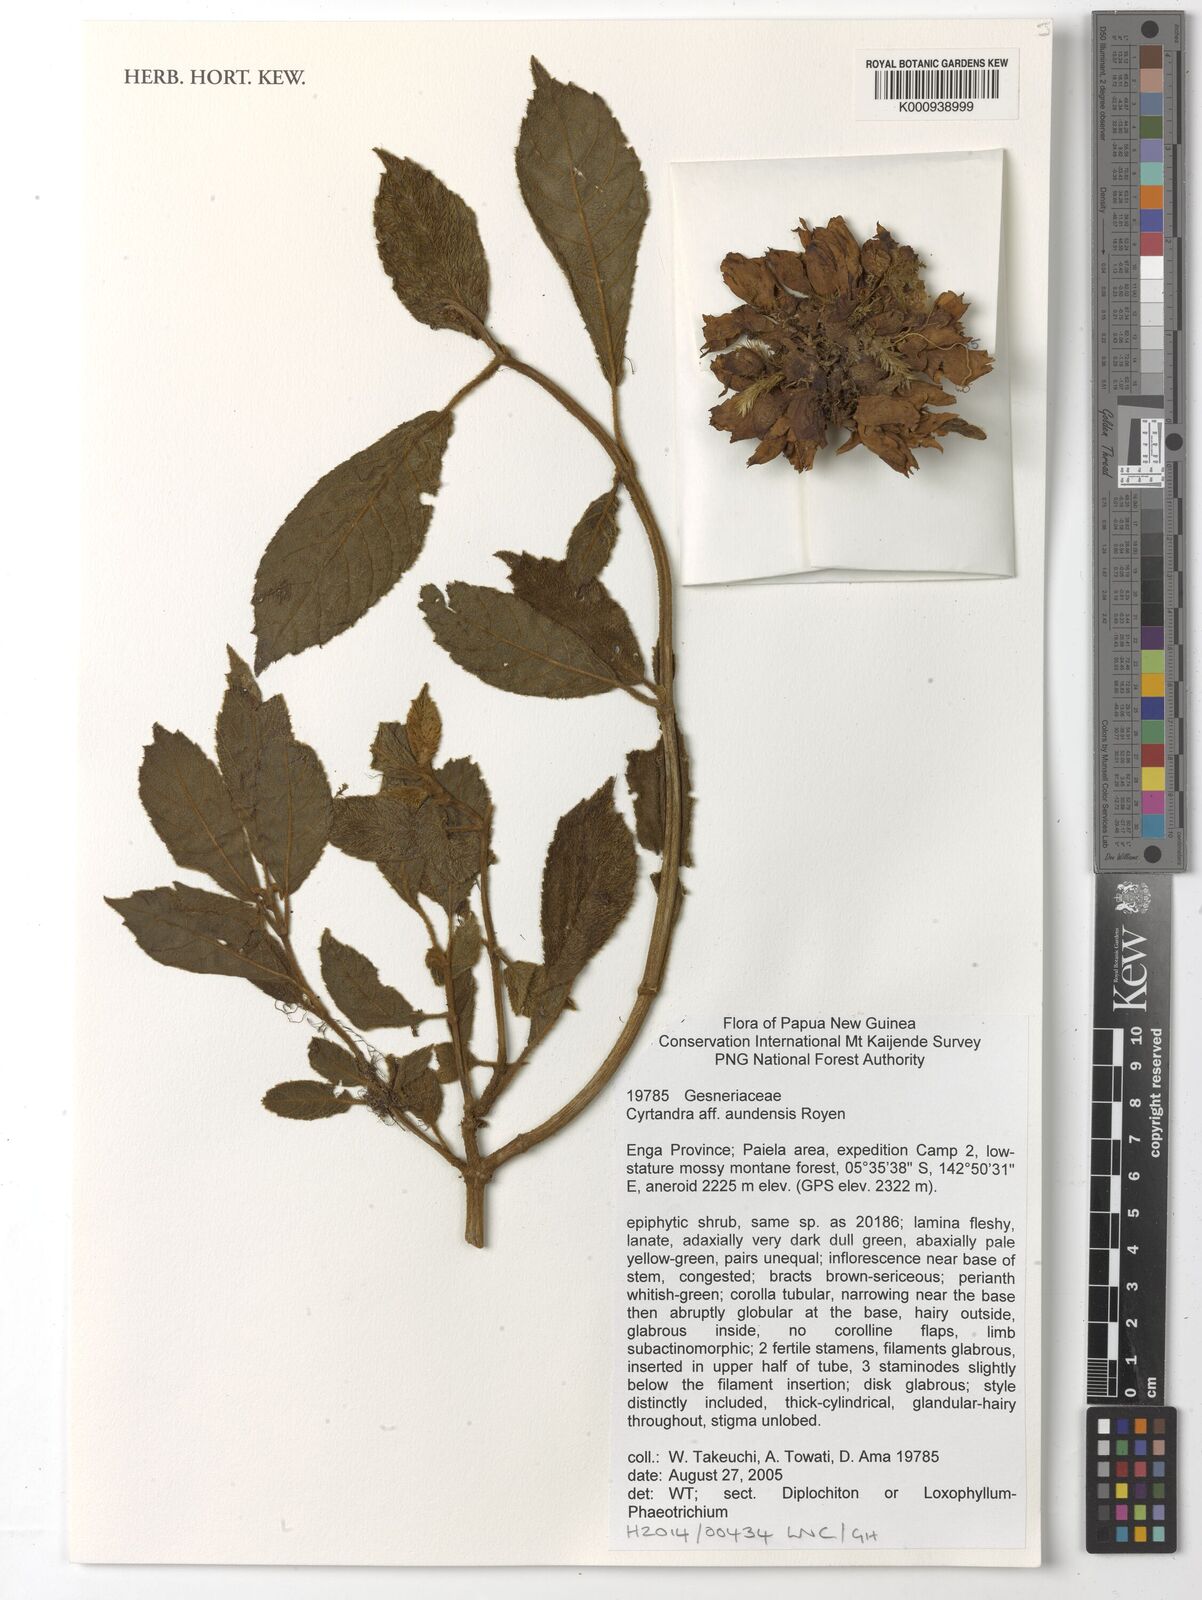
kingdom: Plantae
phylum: Tracheophyta
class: Magnoliopsida
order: Lamiales
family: Gesneriaceae
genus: Cyrtandra
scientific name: Cyrtandra aundensis
